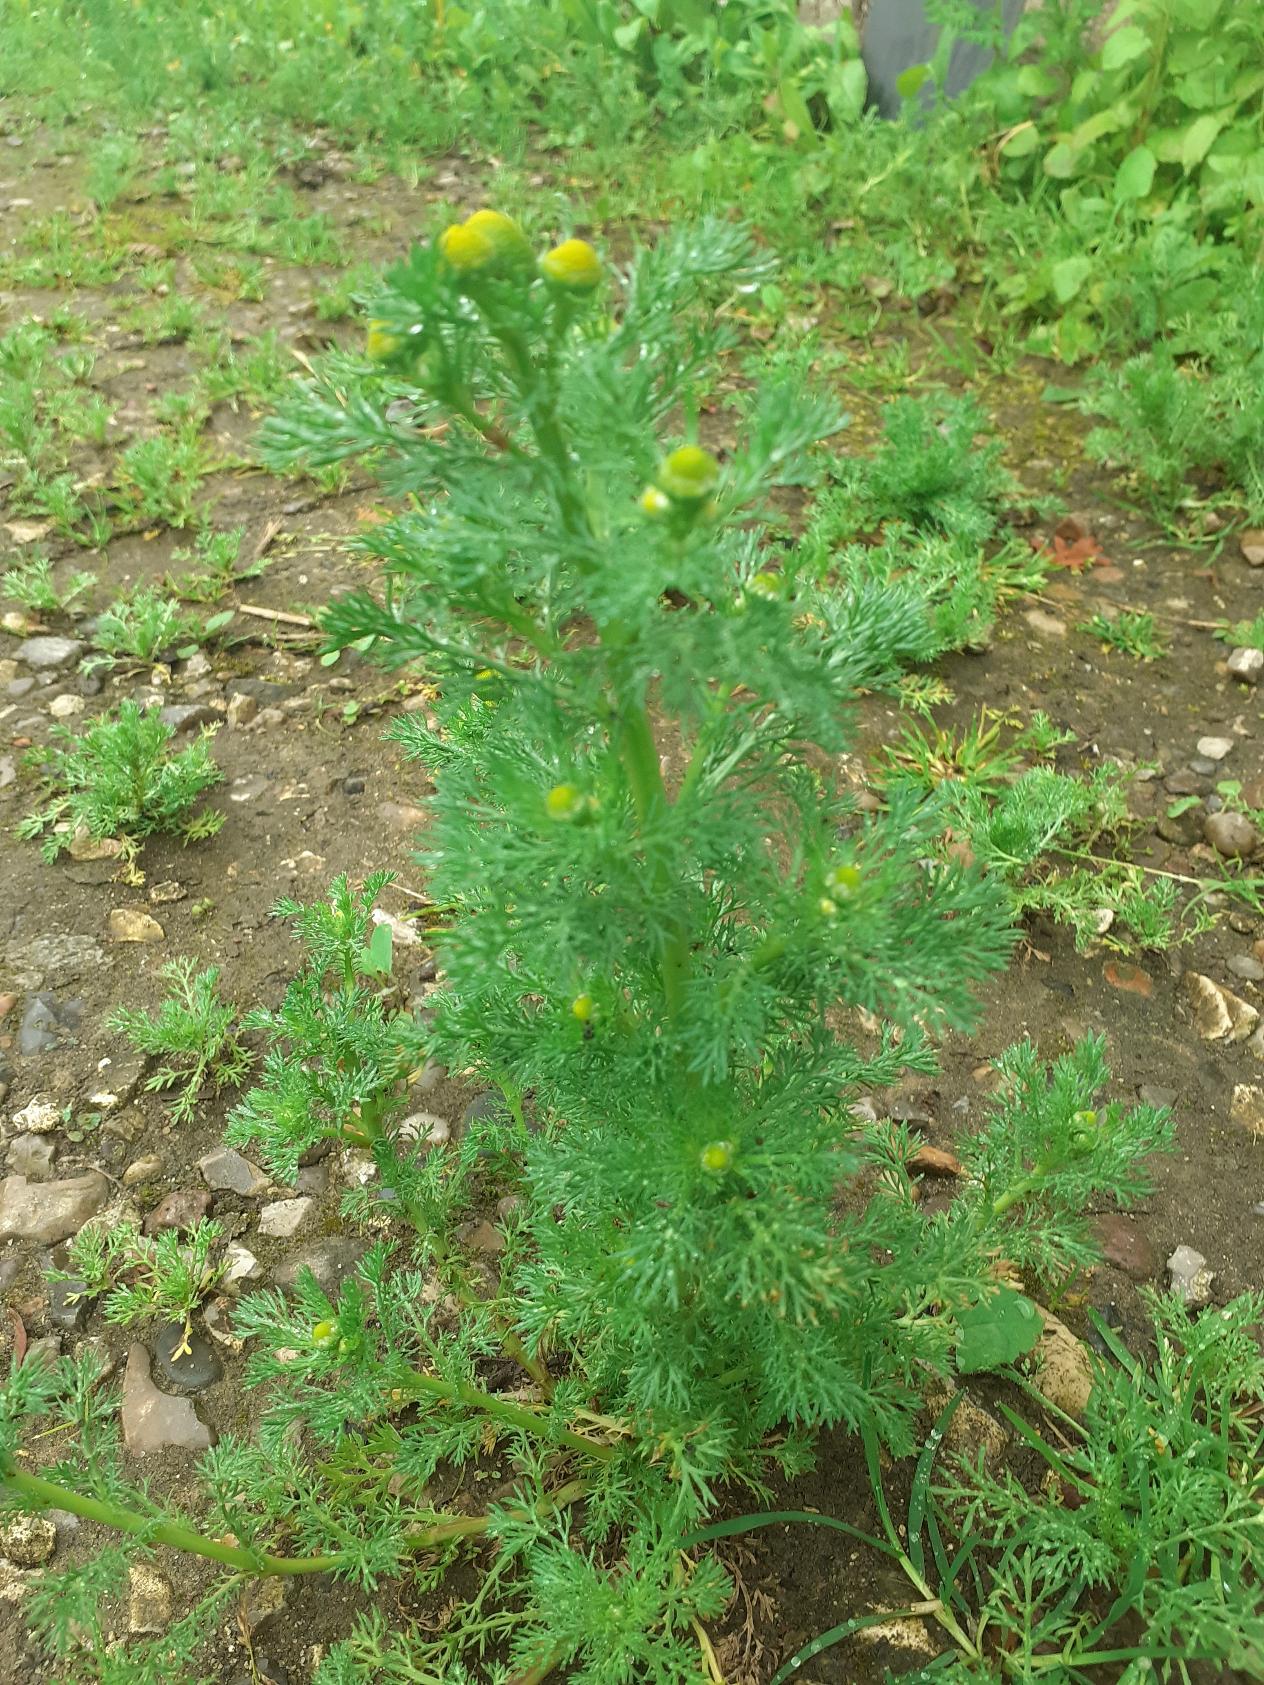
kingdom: Plantae
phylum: Tracheophyta
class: Magnoliopsida
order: Asterales
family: Asteraceae
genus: Matricaria
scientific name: Matricaria discoidea
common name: Skive-kamille
